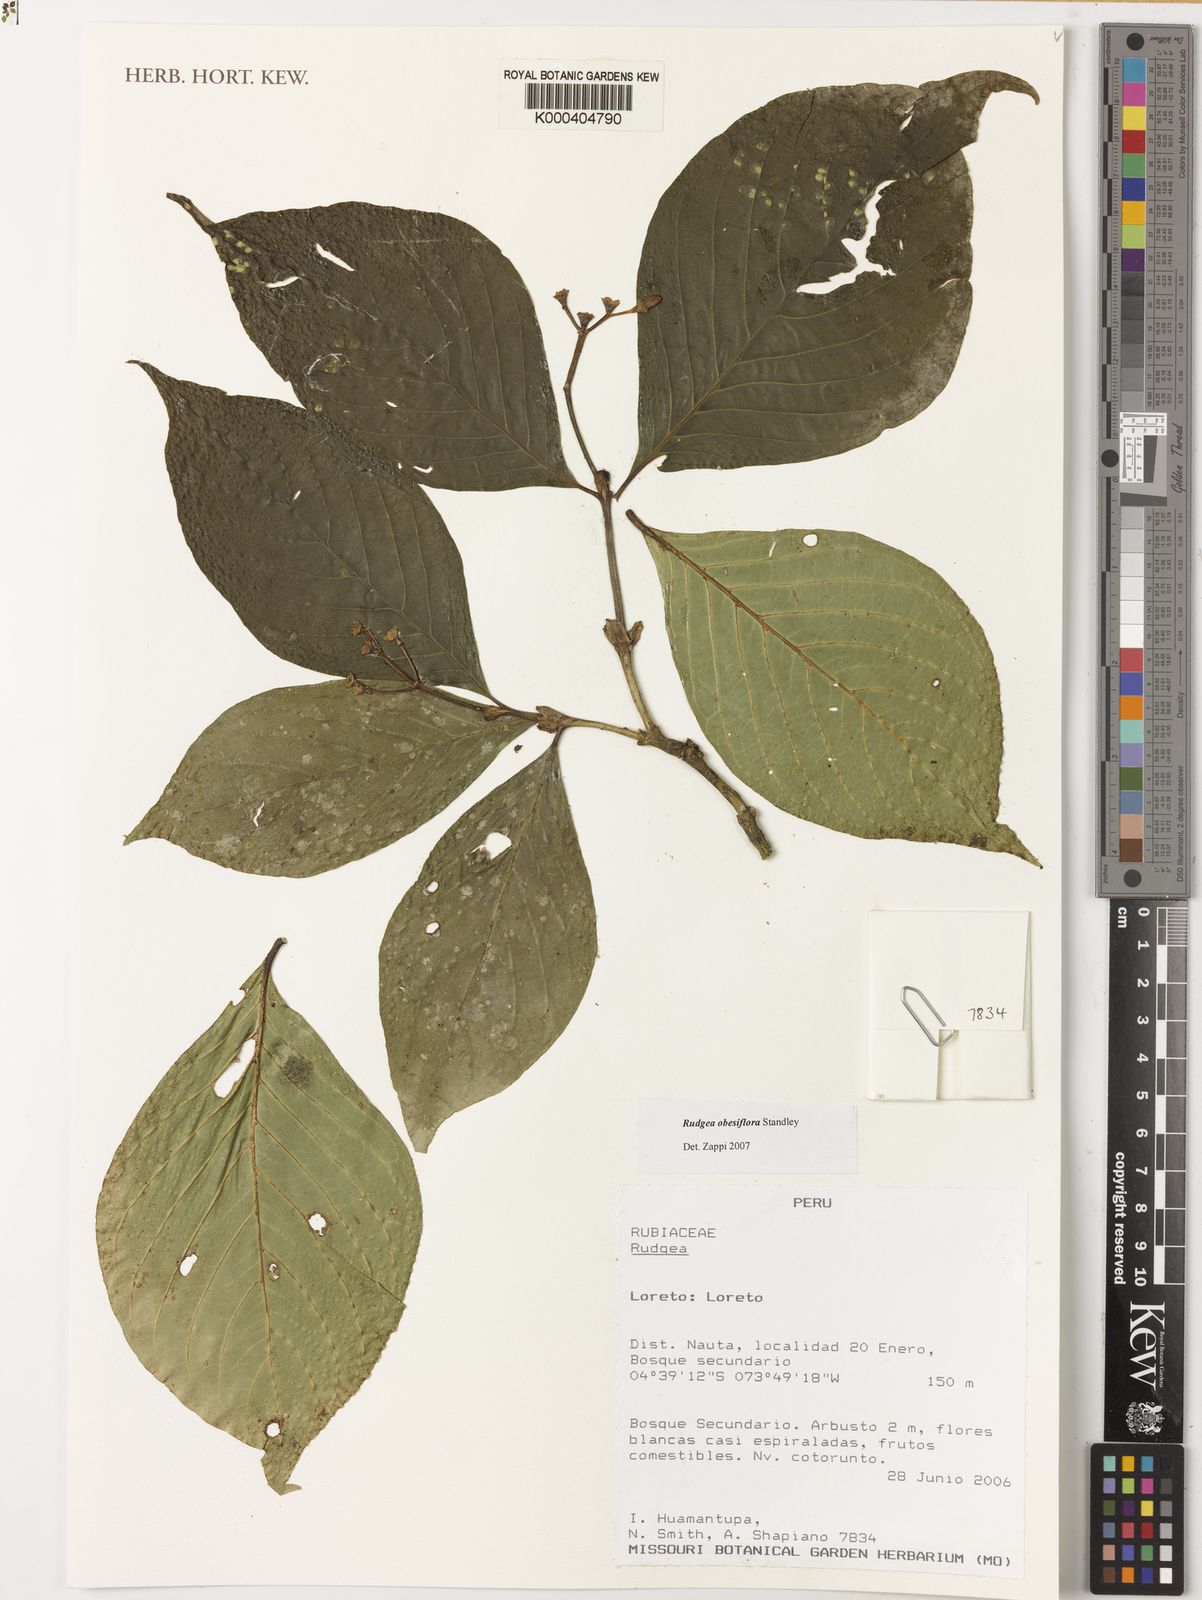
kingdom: Plantae
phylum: Tracheophyta
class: Magnoliopsida
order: Gentianales
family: Rubiaceae
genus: Rudgea
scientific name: Rudgea obesiflora
